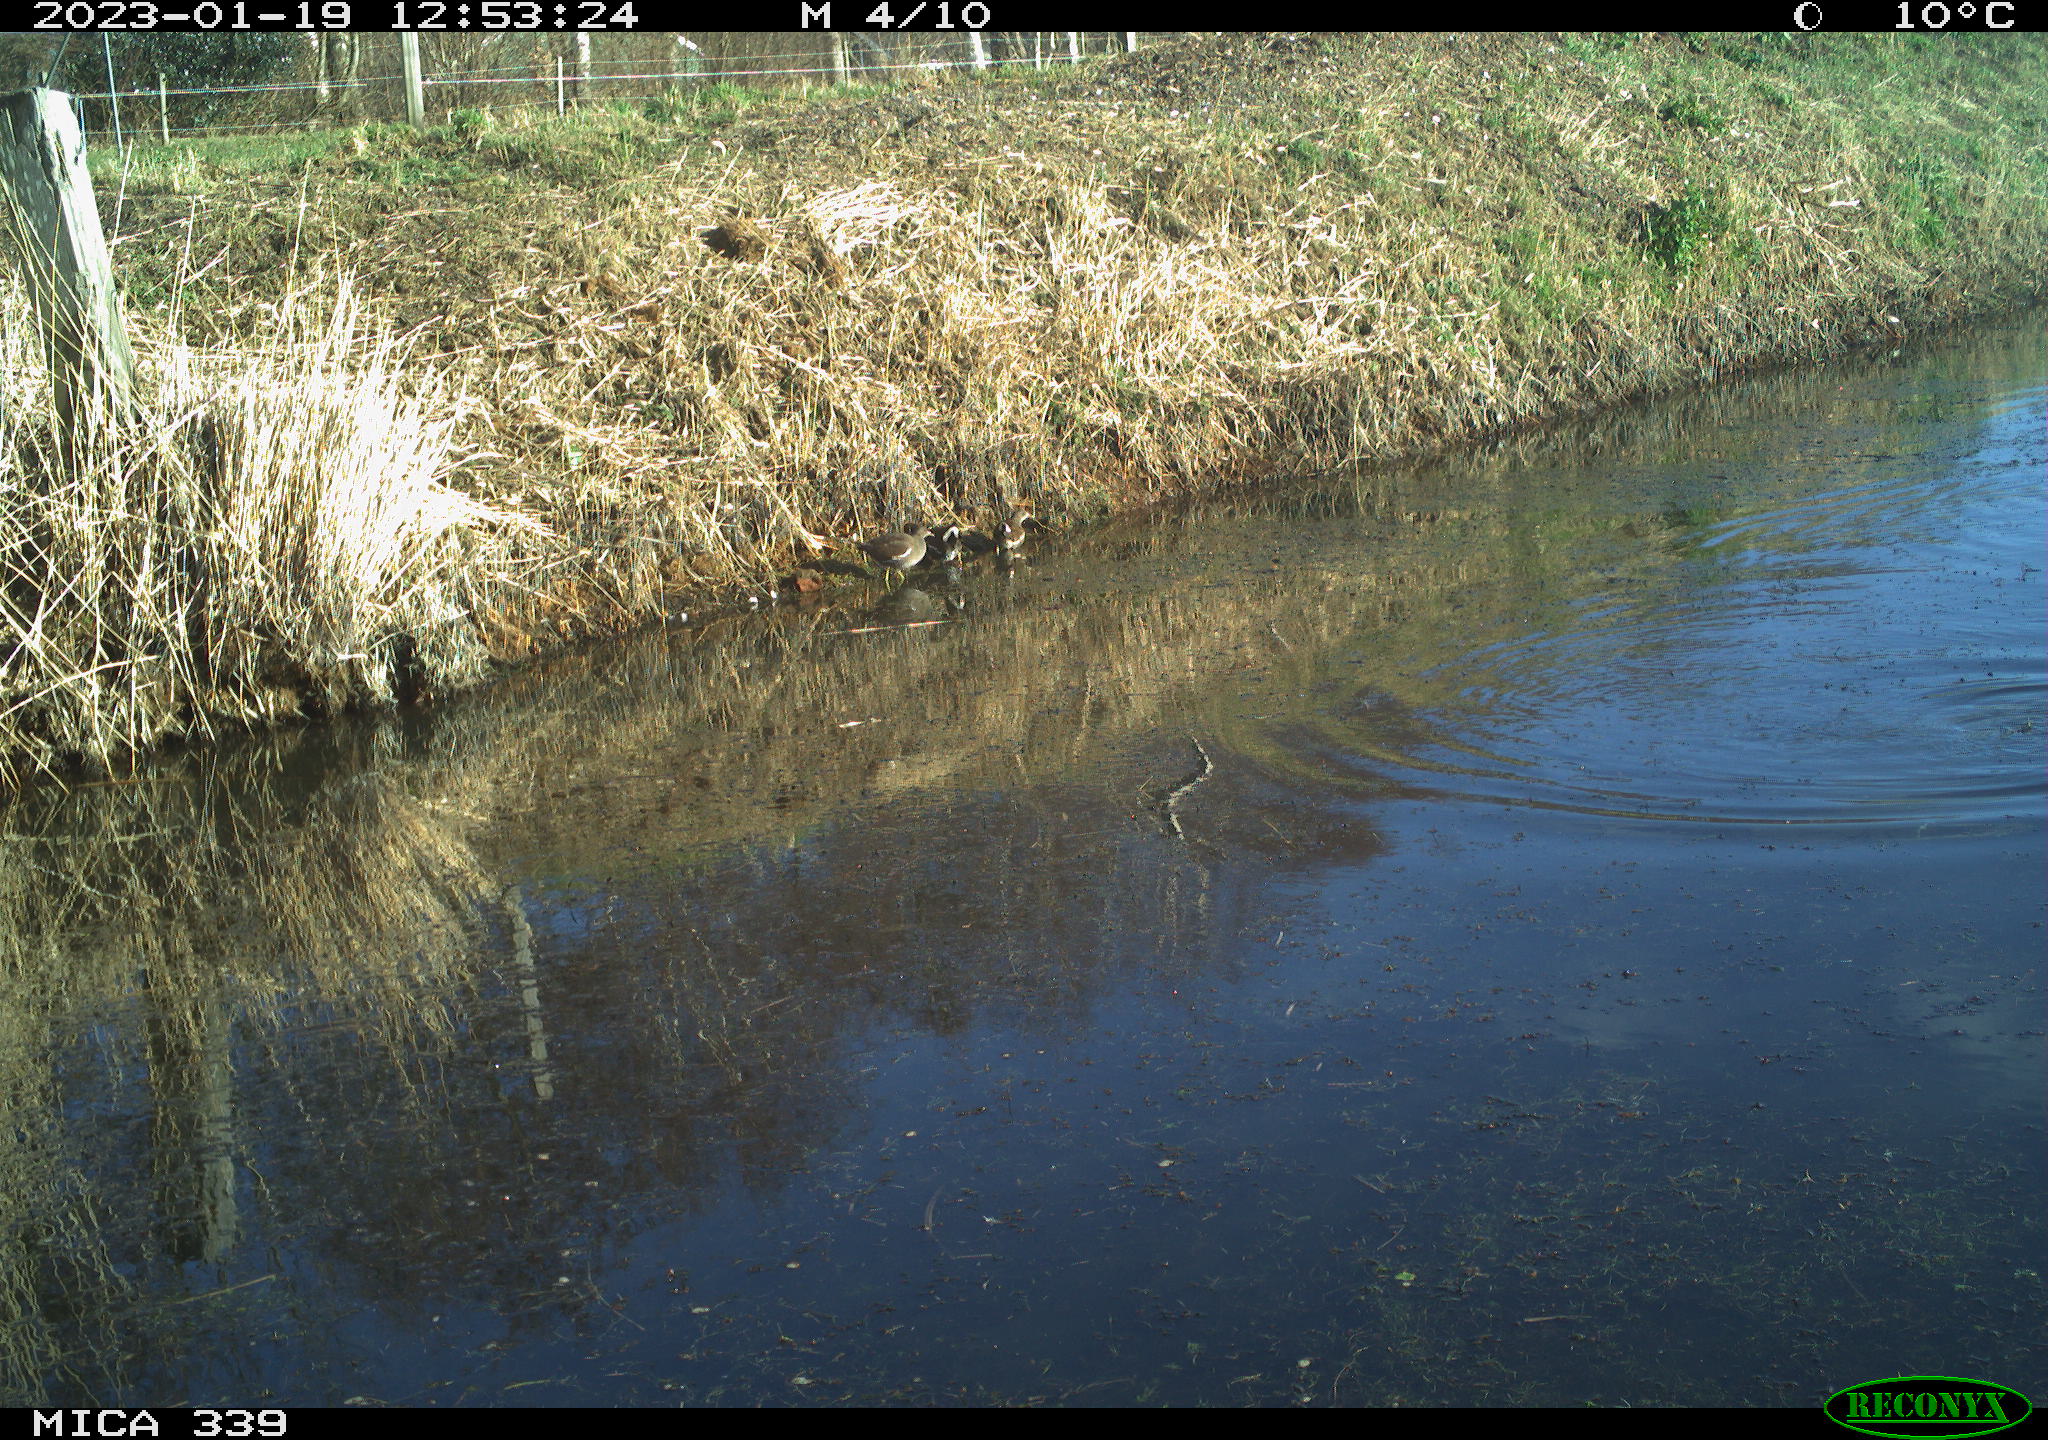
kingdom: Animalia
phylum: Chordata
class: Aves
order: Gruiformes
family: Rallidae
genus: Gallinula
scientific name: Gallinula chloropus
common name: Common moorhen
